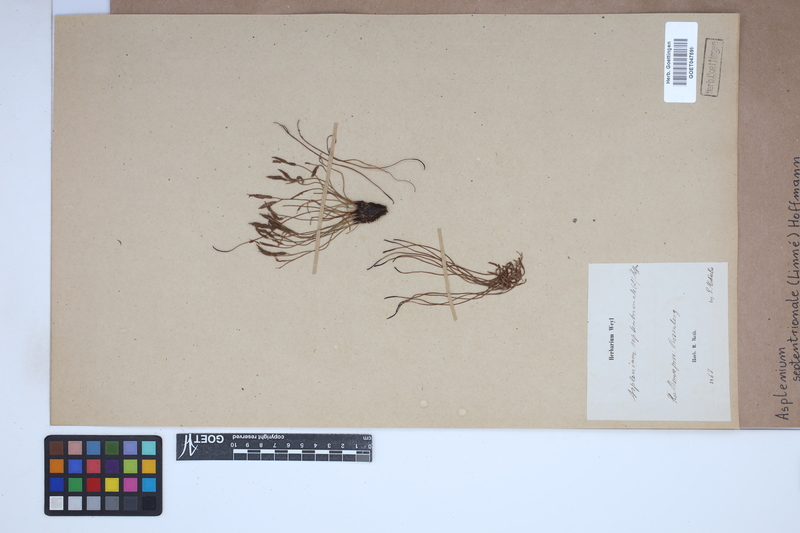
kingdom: Plantae
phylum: Tracheophyta
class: Polypodiopsida
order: Polypodiales
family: Aspleniaceae
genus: Asplenium
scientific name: Asplenium septentrionale
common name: Forked spleenwort
